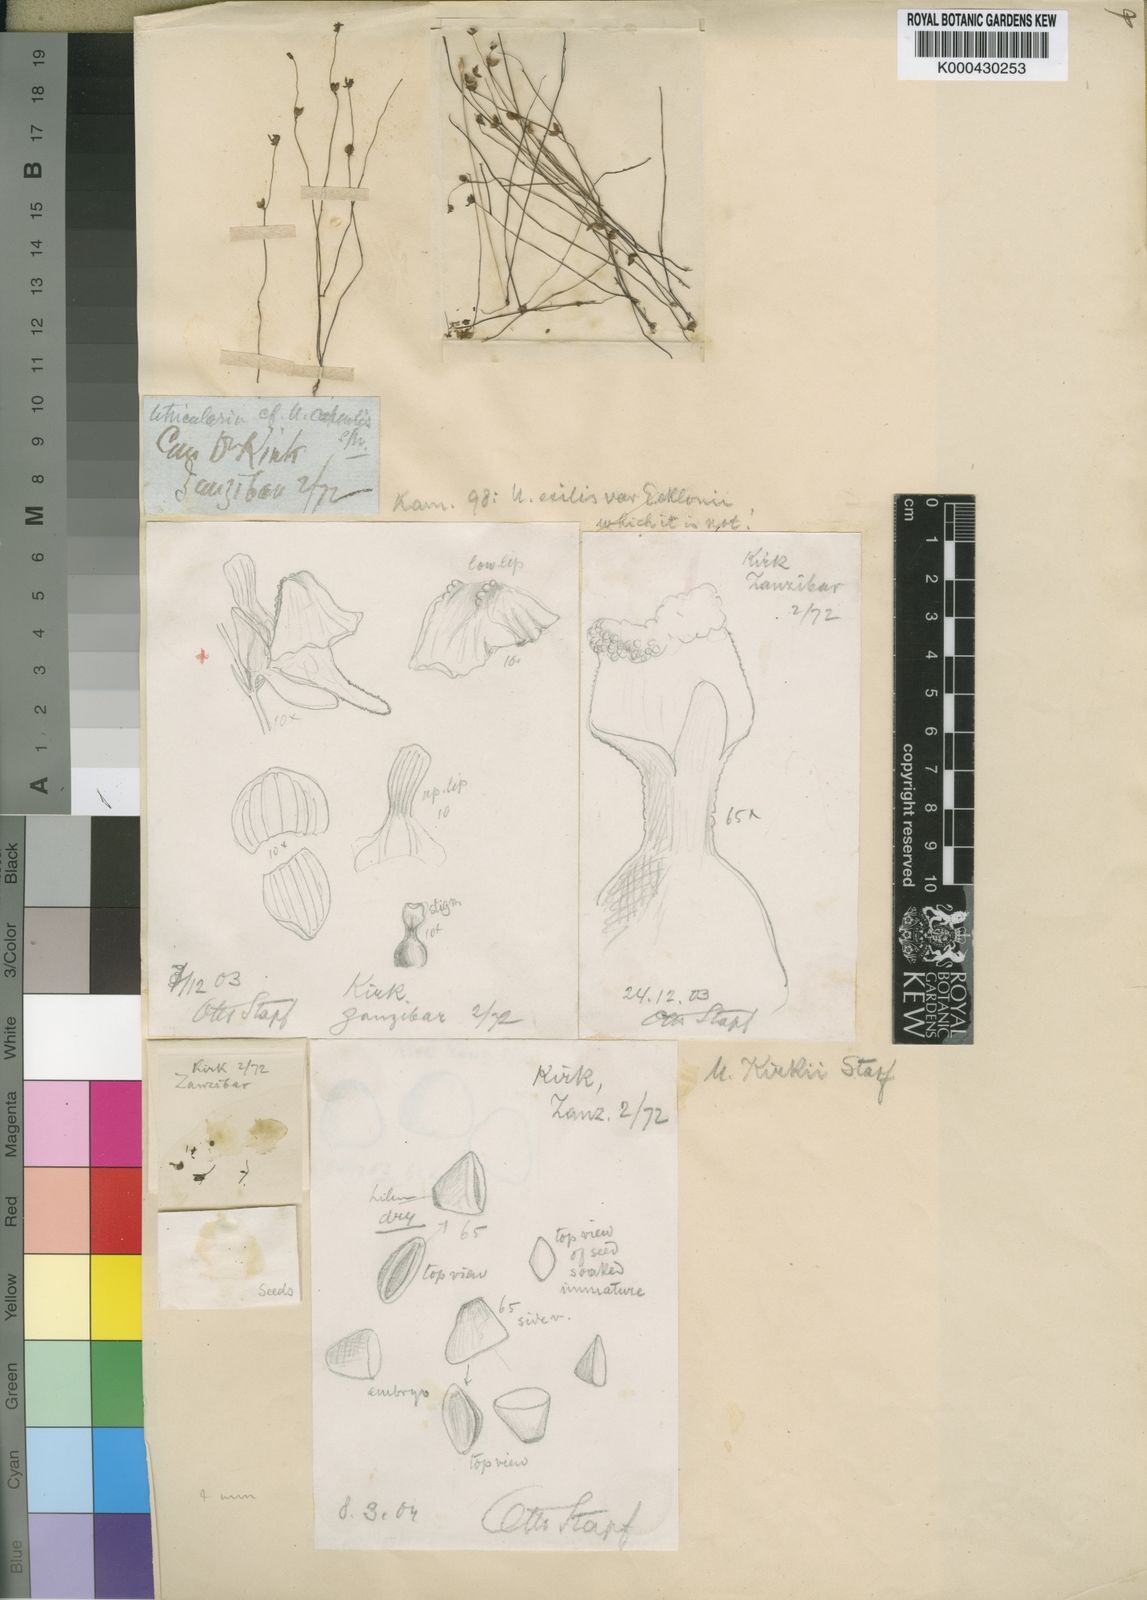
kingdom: Plantae
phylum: Tracheophyta
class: Magnoliopsida
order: Lamiales
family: Lentibulariaceae
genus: Utricularia
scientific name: Utricularia arenaria
